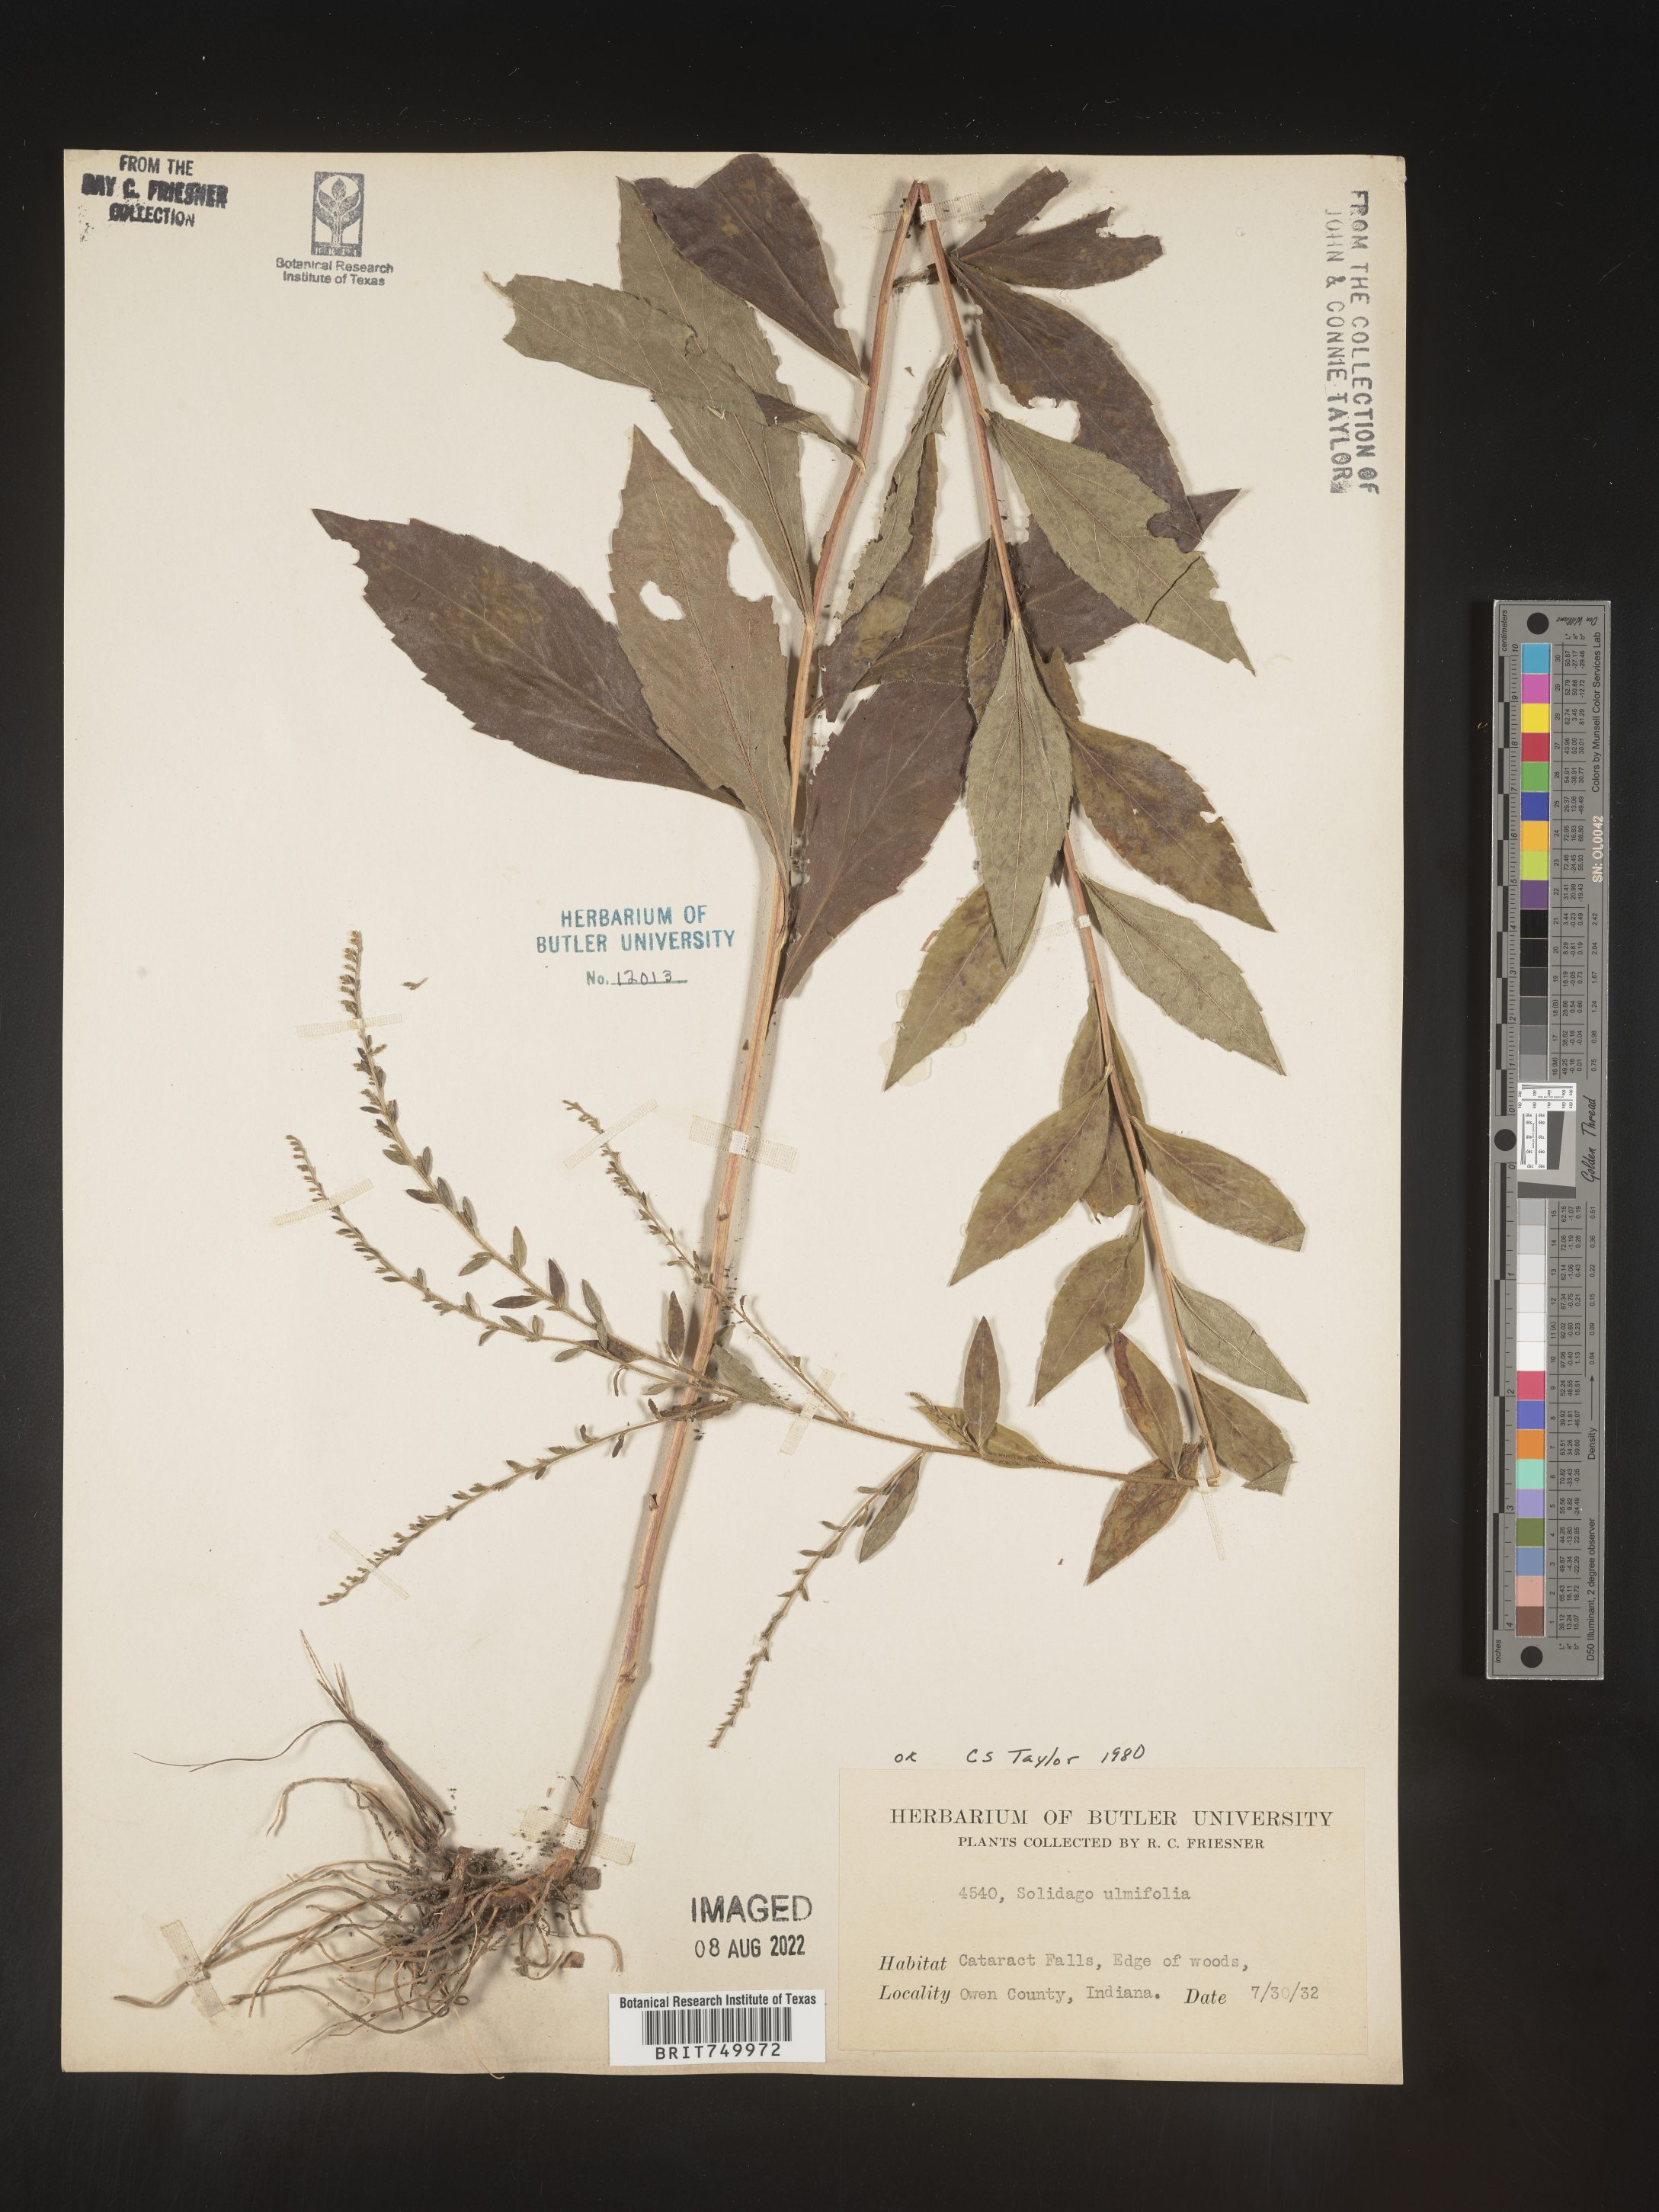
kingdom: Plantae
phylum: Tracheophyta
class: Magnoliopsida
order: Asterales
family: Asteraceae
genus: Solidago
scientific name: Solidago ulmifolia
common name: Elm-leaf goldenrod
